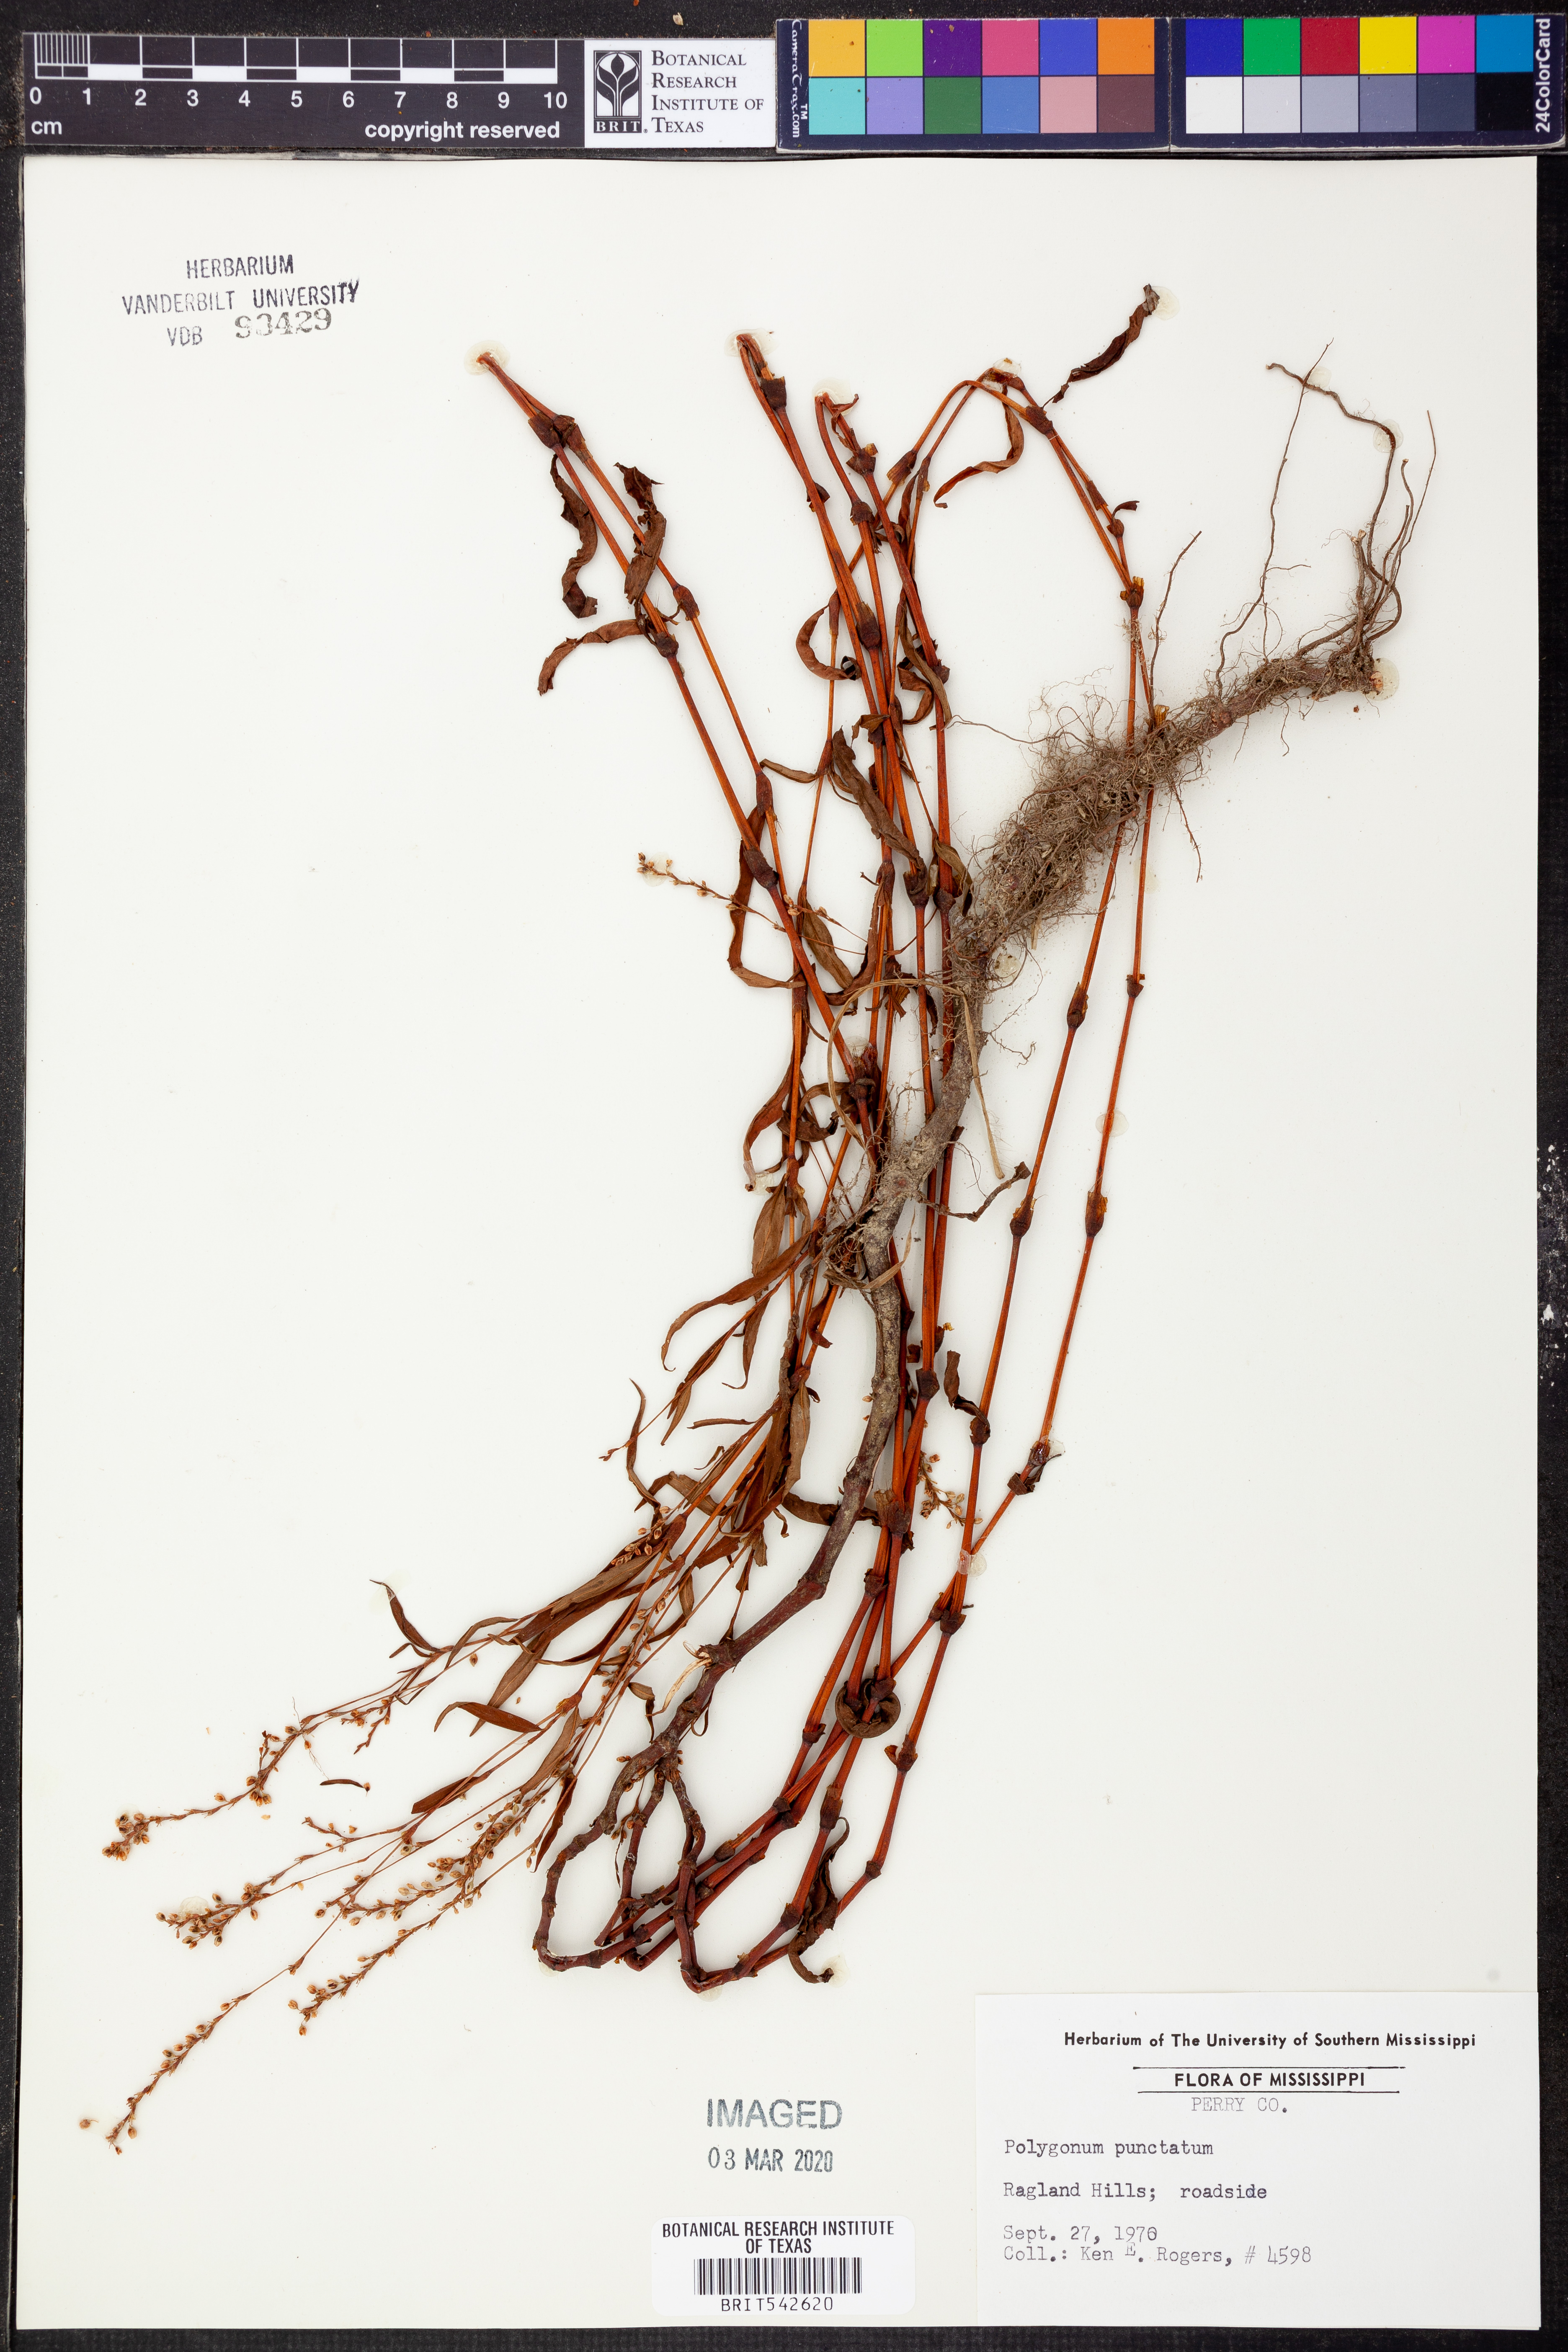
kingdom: Plantae
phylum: Tracheophyta
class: Magnoliopsida
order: Caryophyllales
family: Polygonaceae
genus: Persicaria
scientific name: Persicaria punctata
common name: Dotted smartweed
